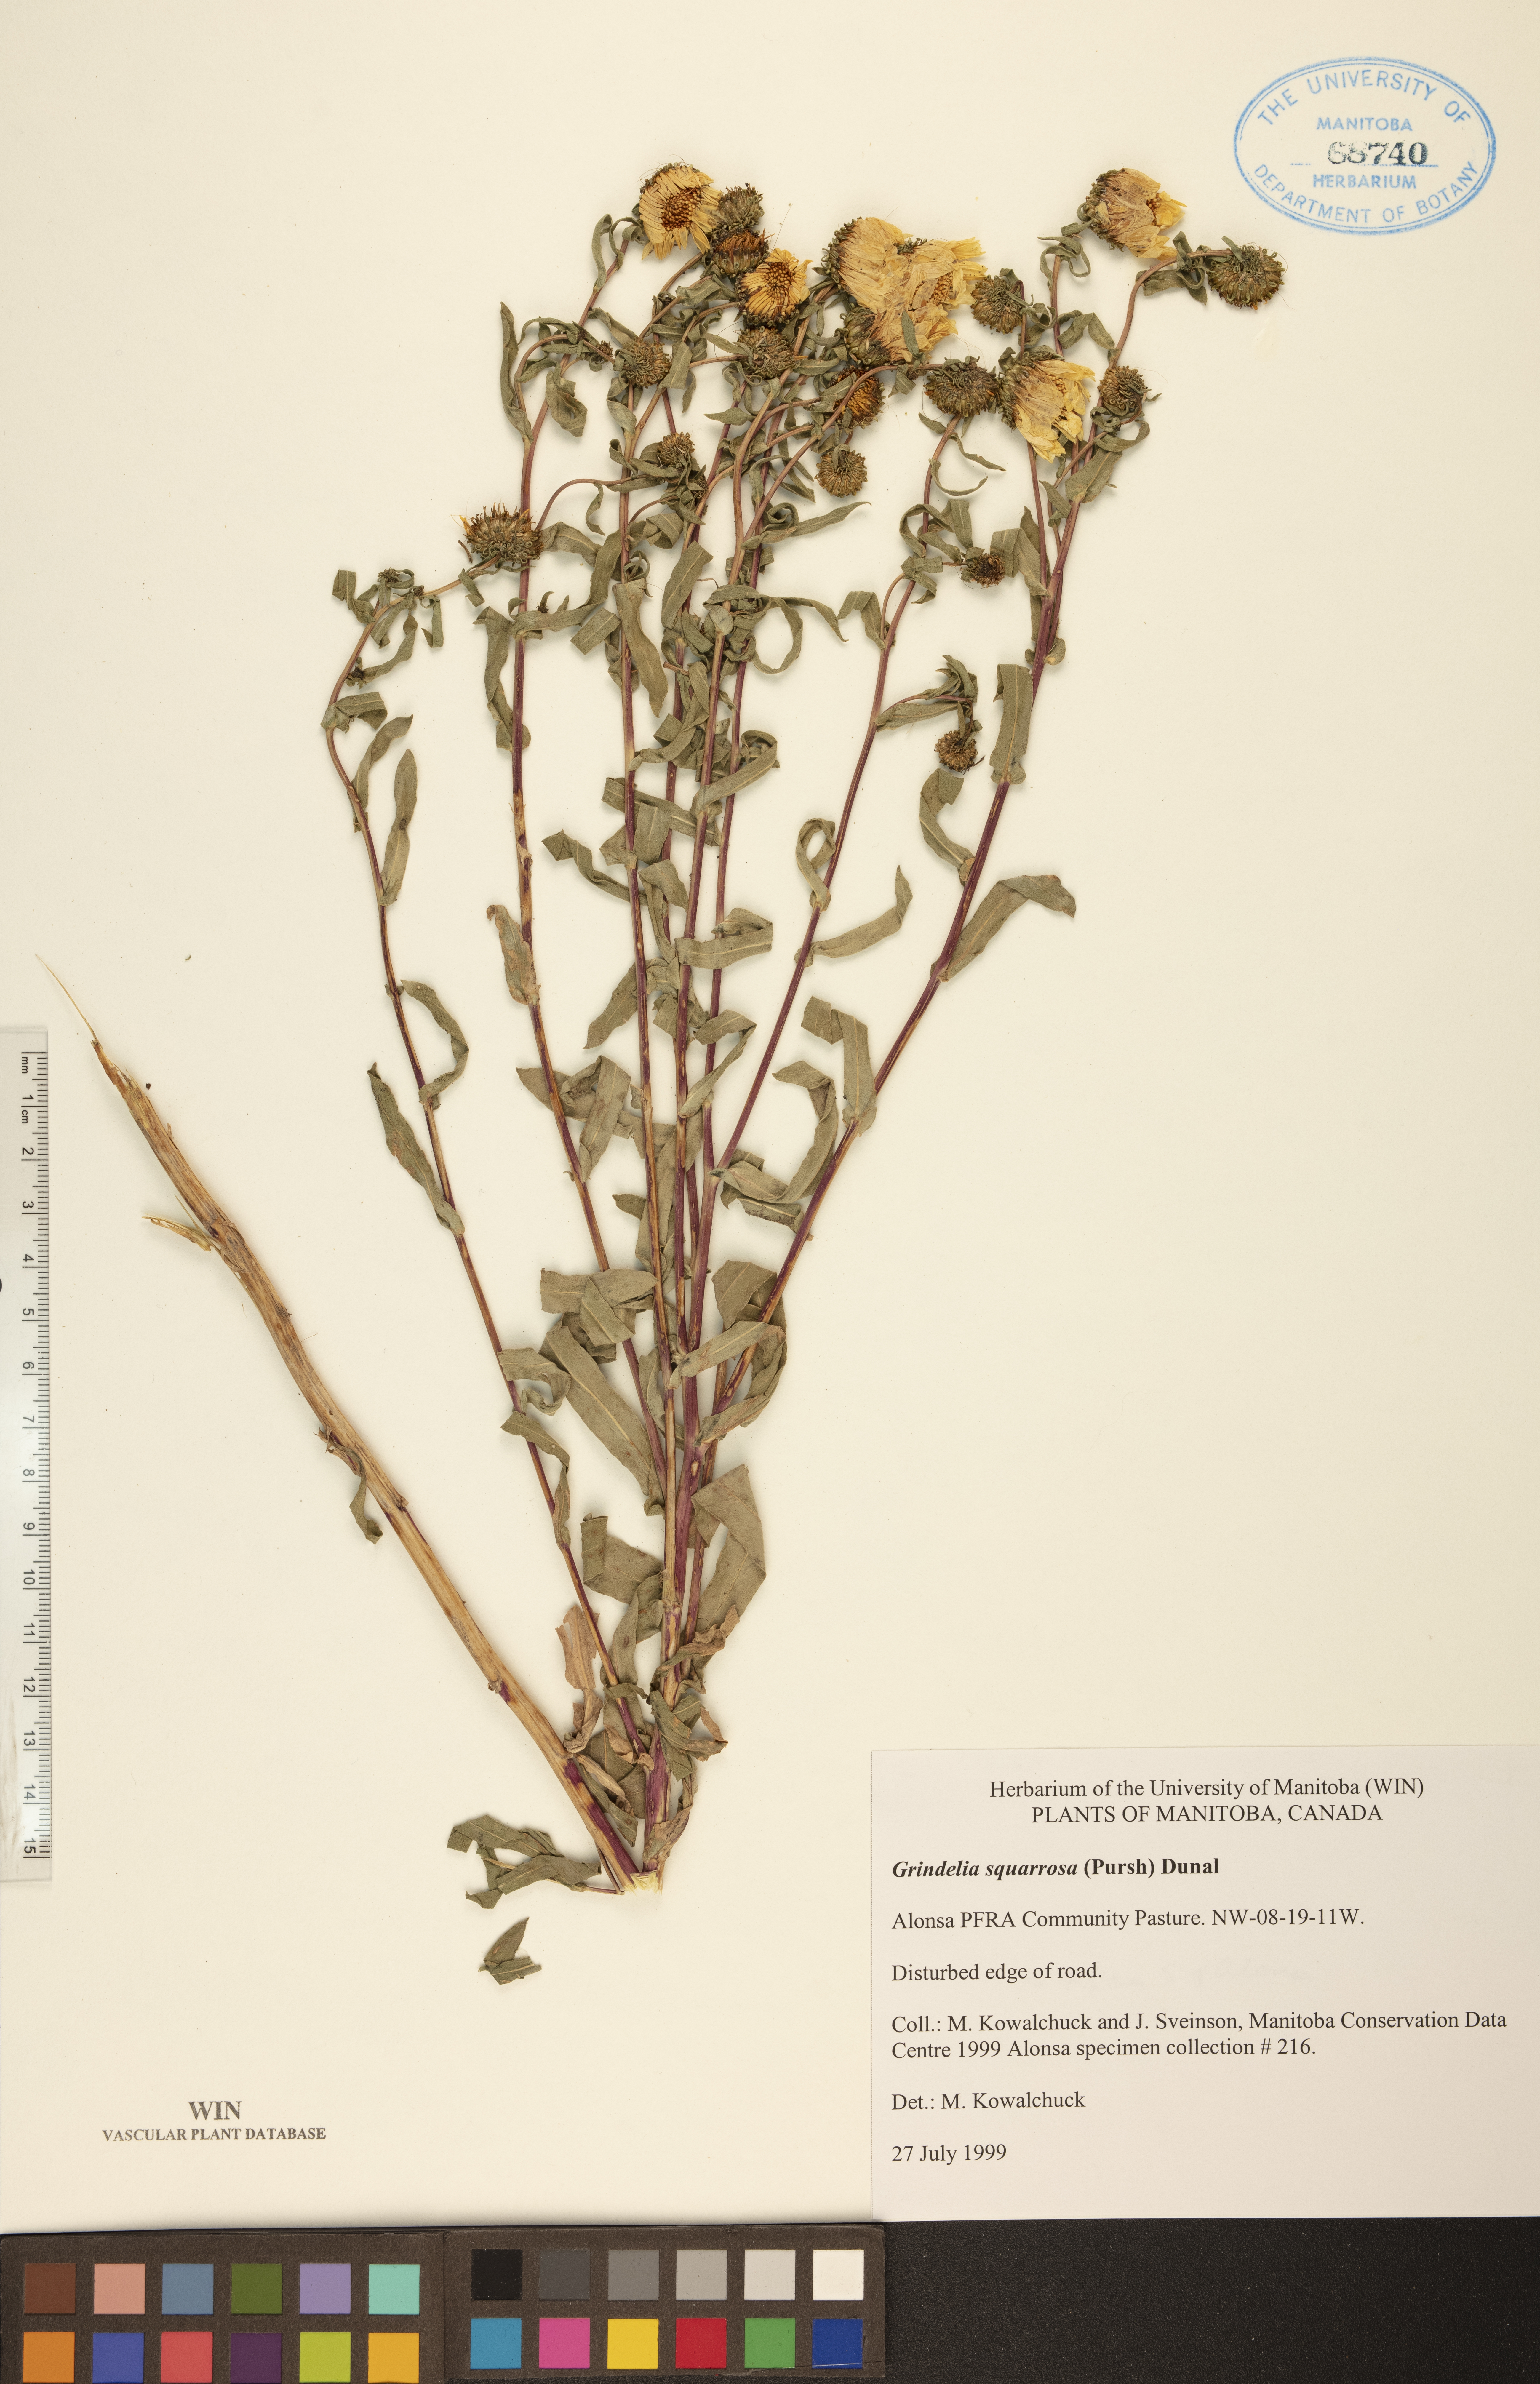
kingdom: Plantae
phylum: Tracheophyta
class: Magnoliopsida
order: Asterales
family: Asteraceae
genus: Grindelia
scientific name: Grindelia squarrosa
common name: Curly-cup gumweed
